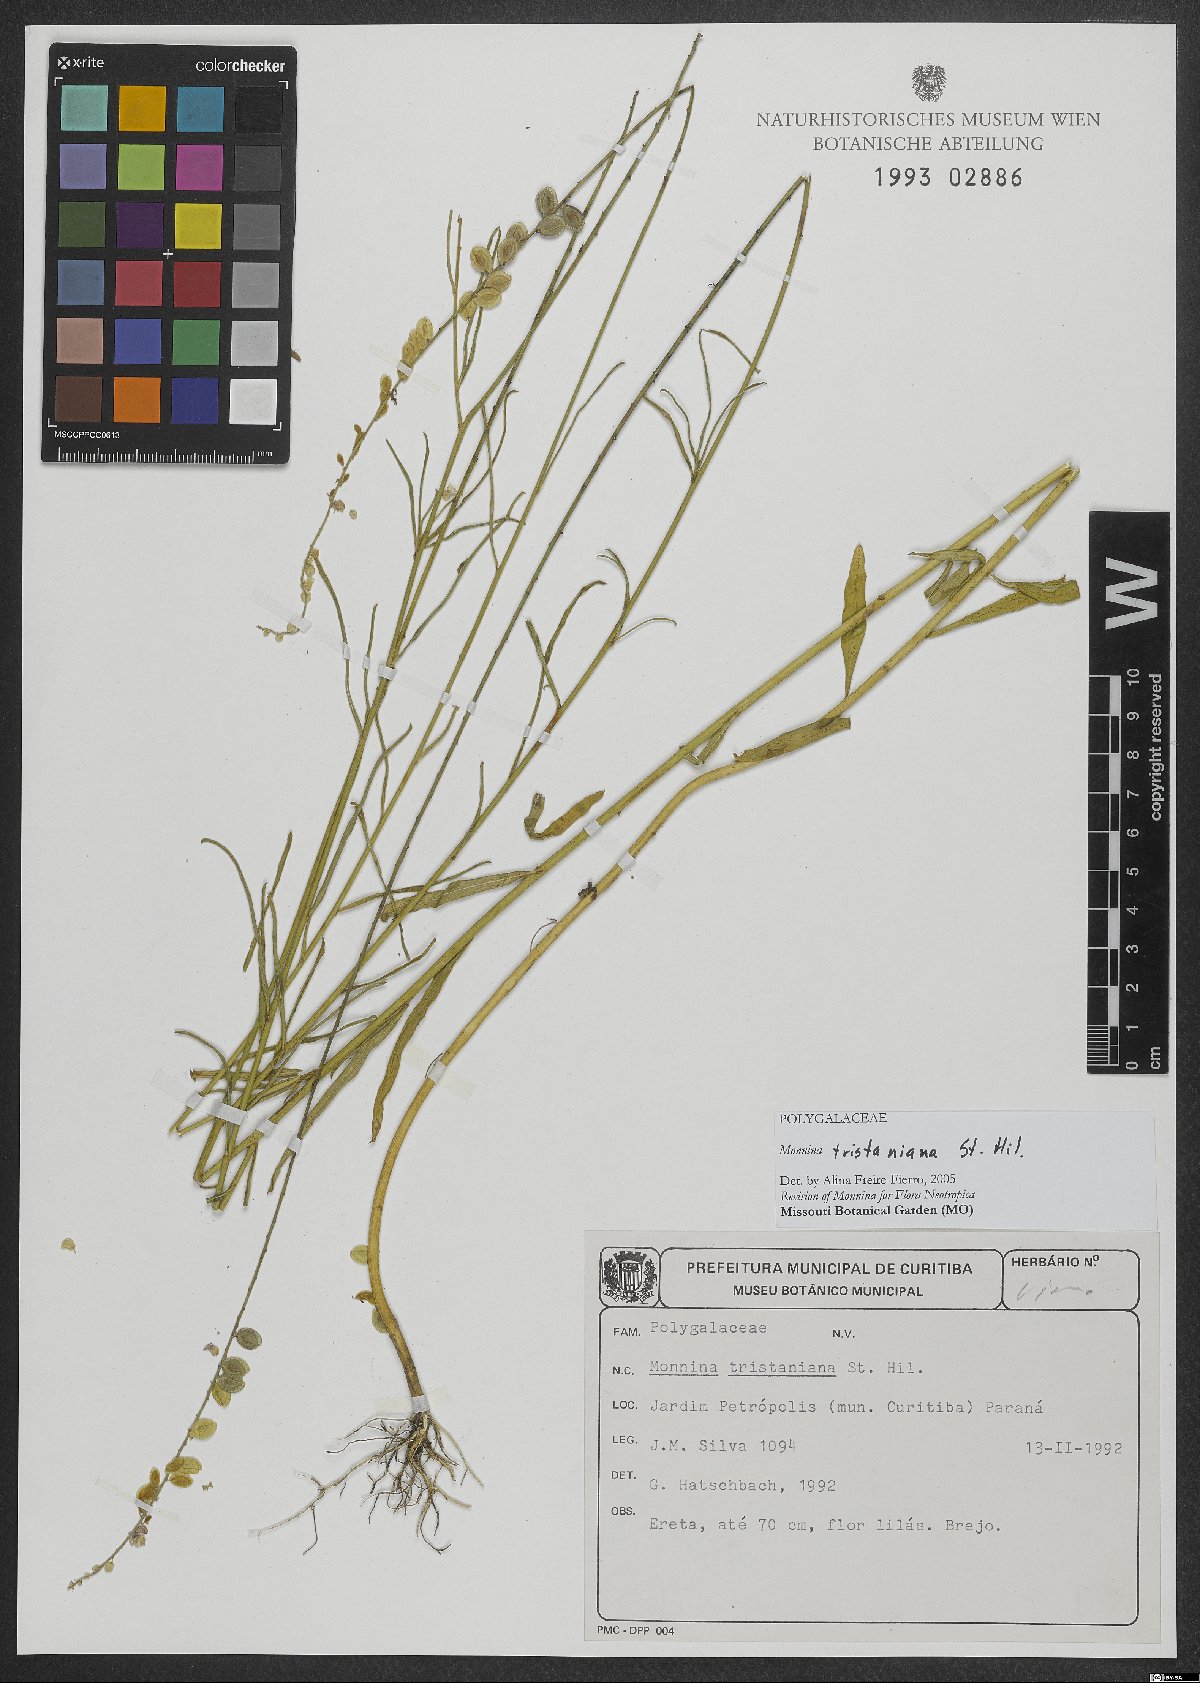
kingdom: Plantae
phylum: Tracheophyta
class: Magnoliopsida
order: Fabales
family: Polygalaceae
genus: Monnina
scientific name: Monnina tristaniana
